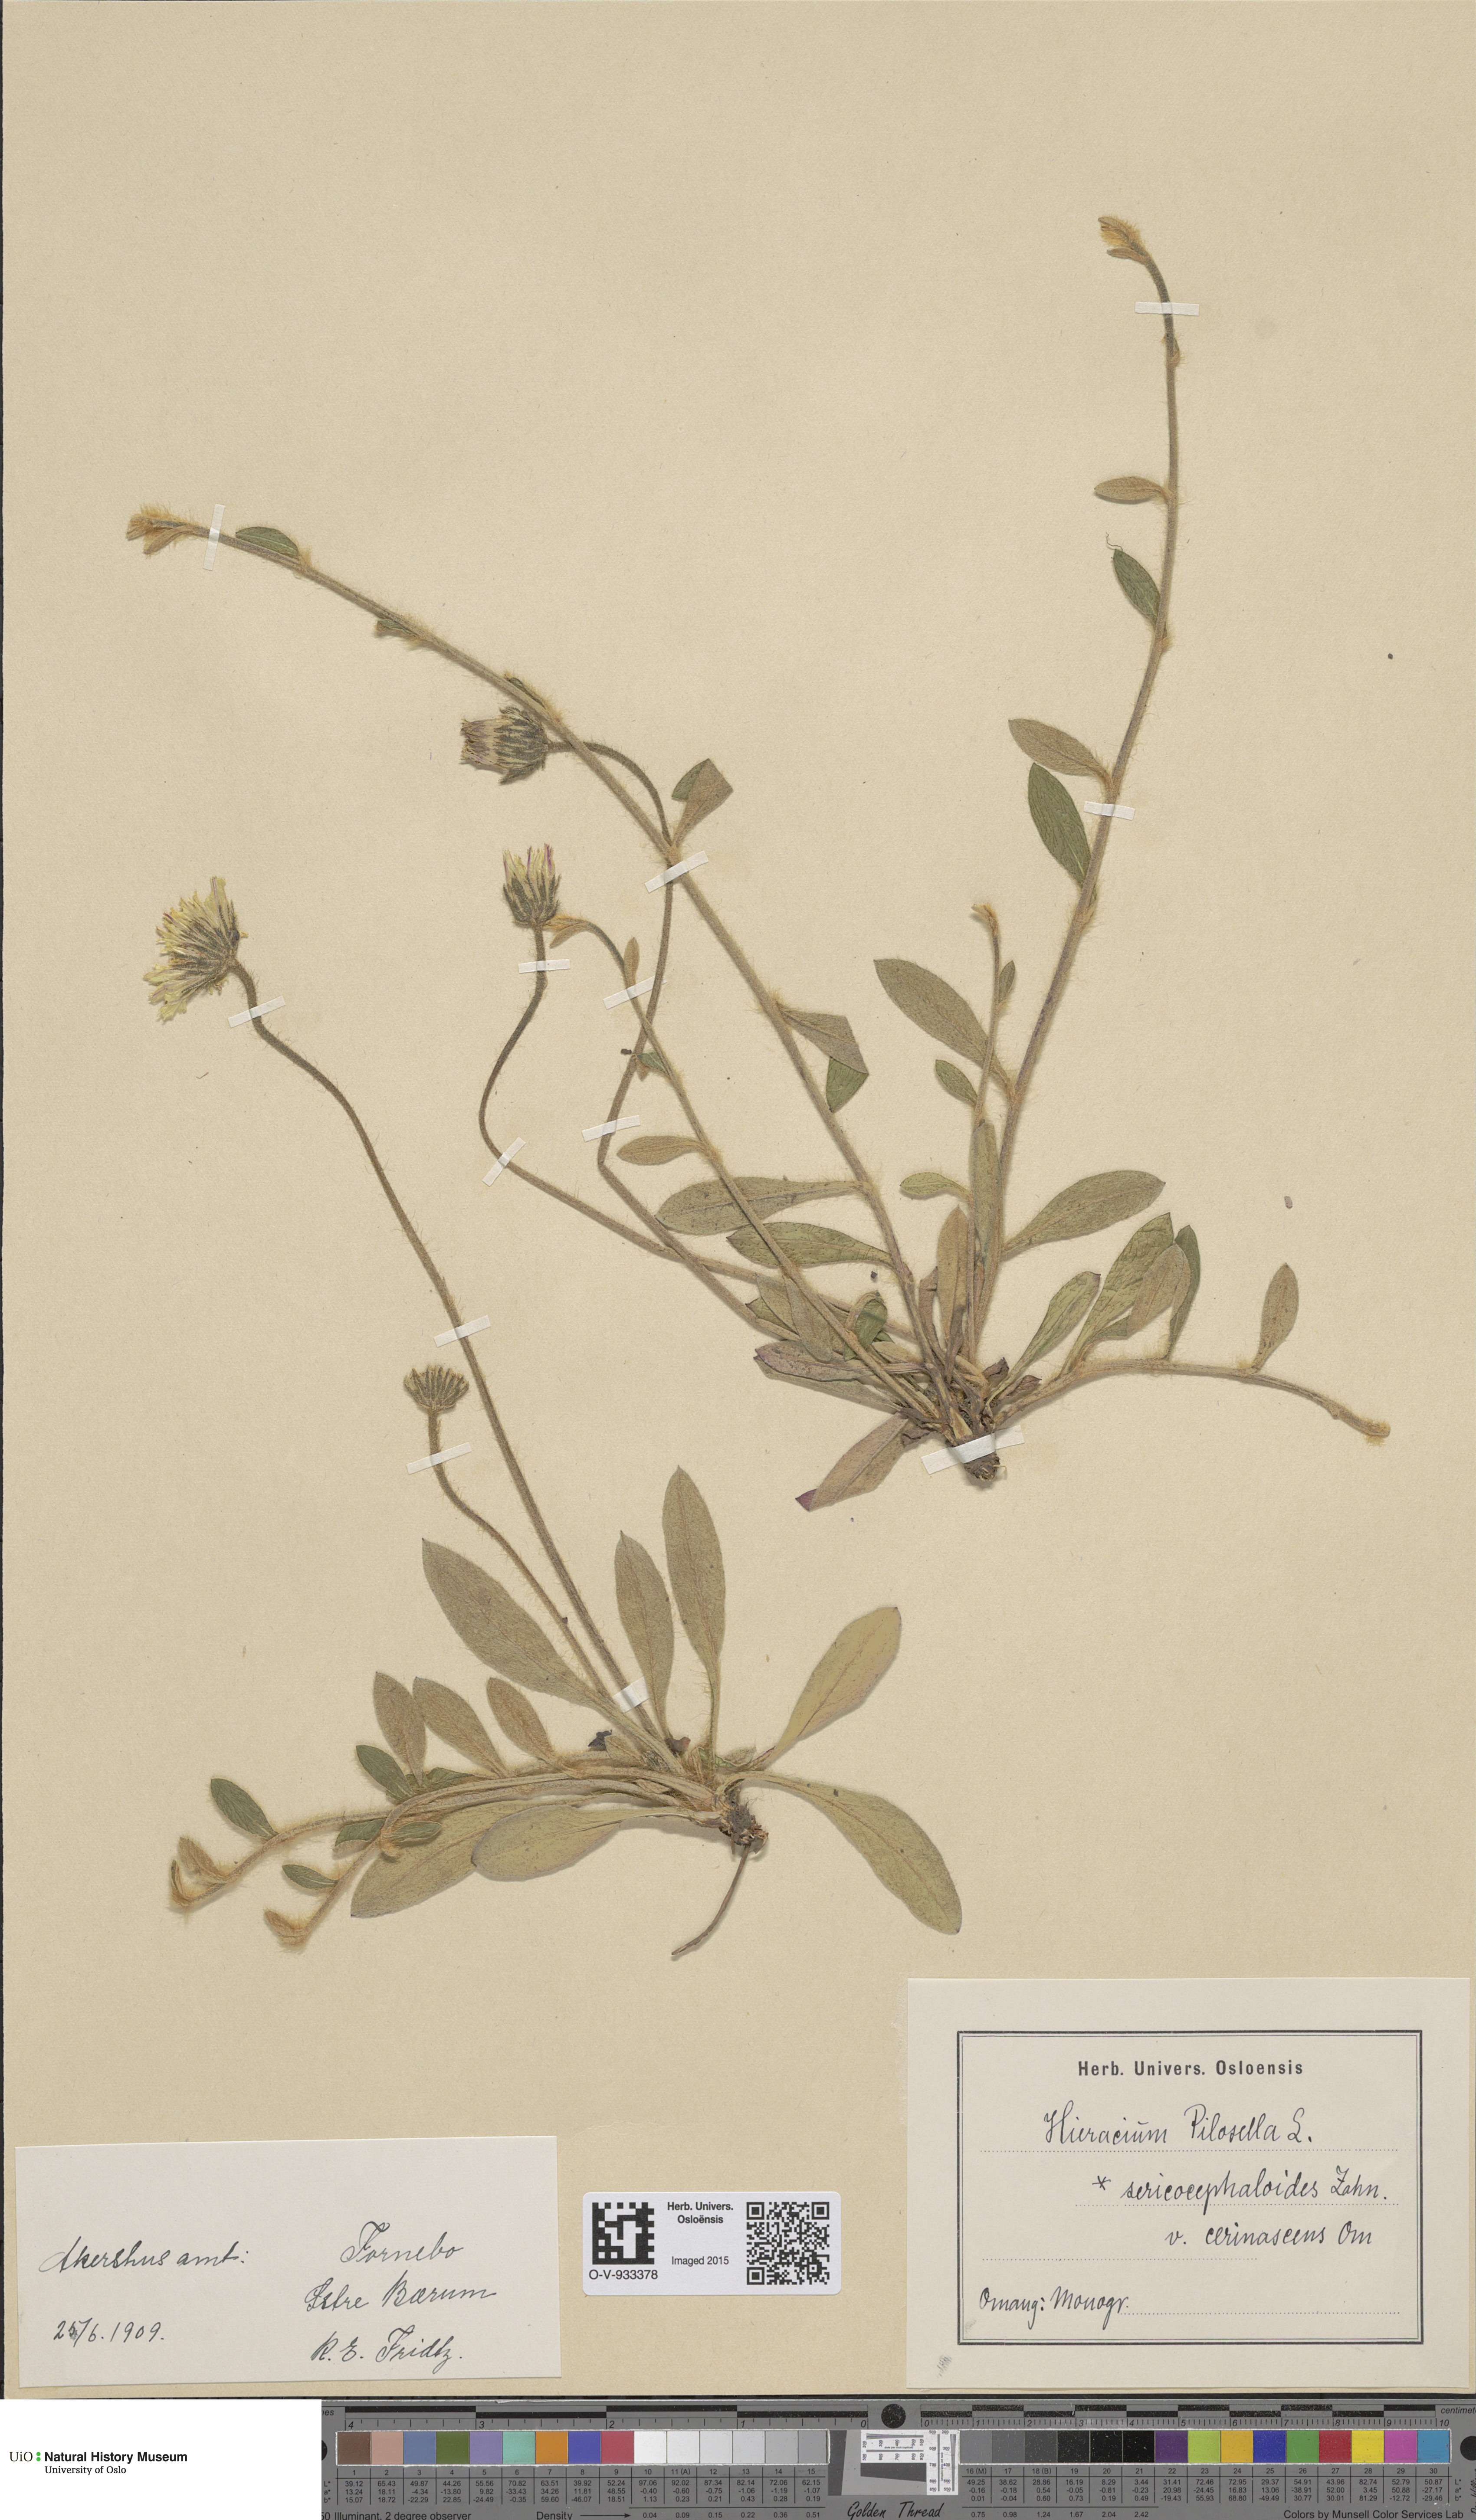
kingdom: Plantae
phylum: Tracheophyta
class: Magnoliopsida
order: Asterales
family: Asteraceae
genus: Pilosella
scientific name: Pilosella officinarum
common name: Mouse-ear hawkweed
